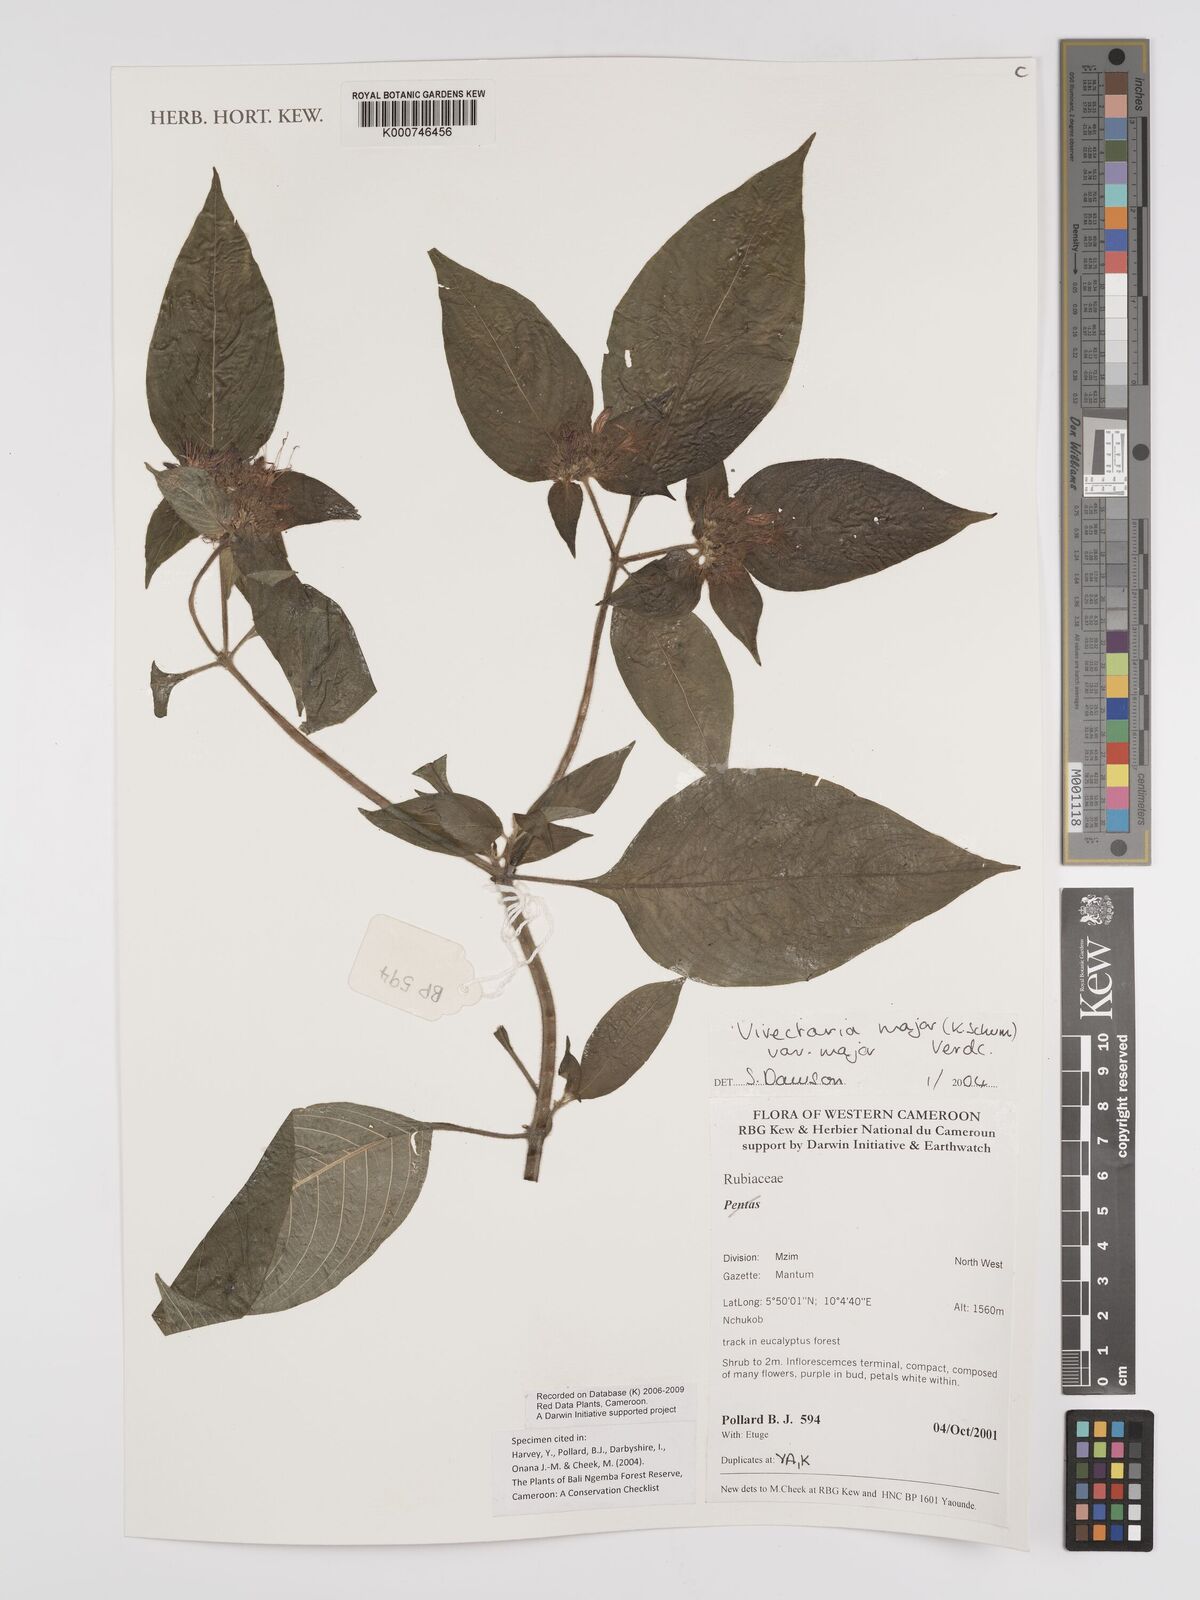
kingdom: Plantae
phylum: Tracheophyta
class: Magnoliopsida
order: Gentianales
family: Rubiaceae
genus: Virectaria
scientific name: Virectaria major
